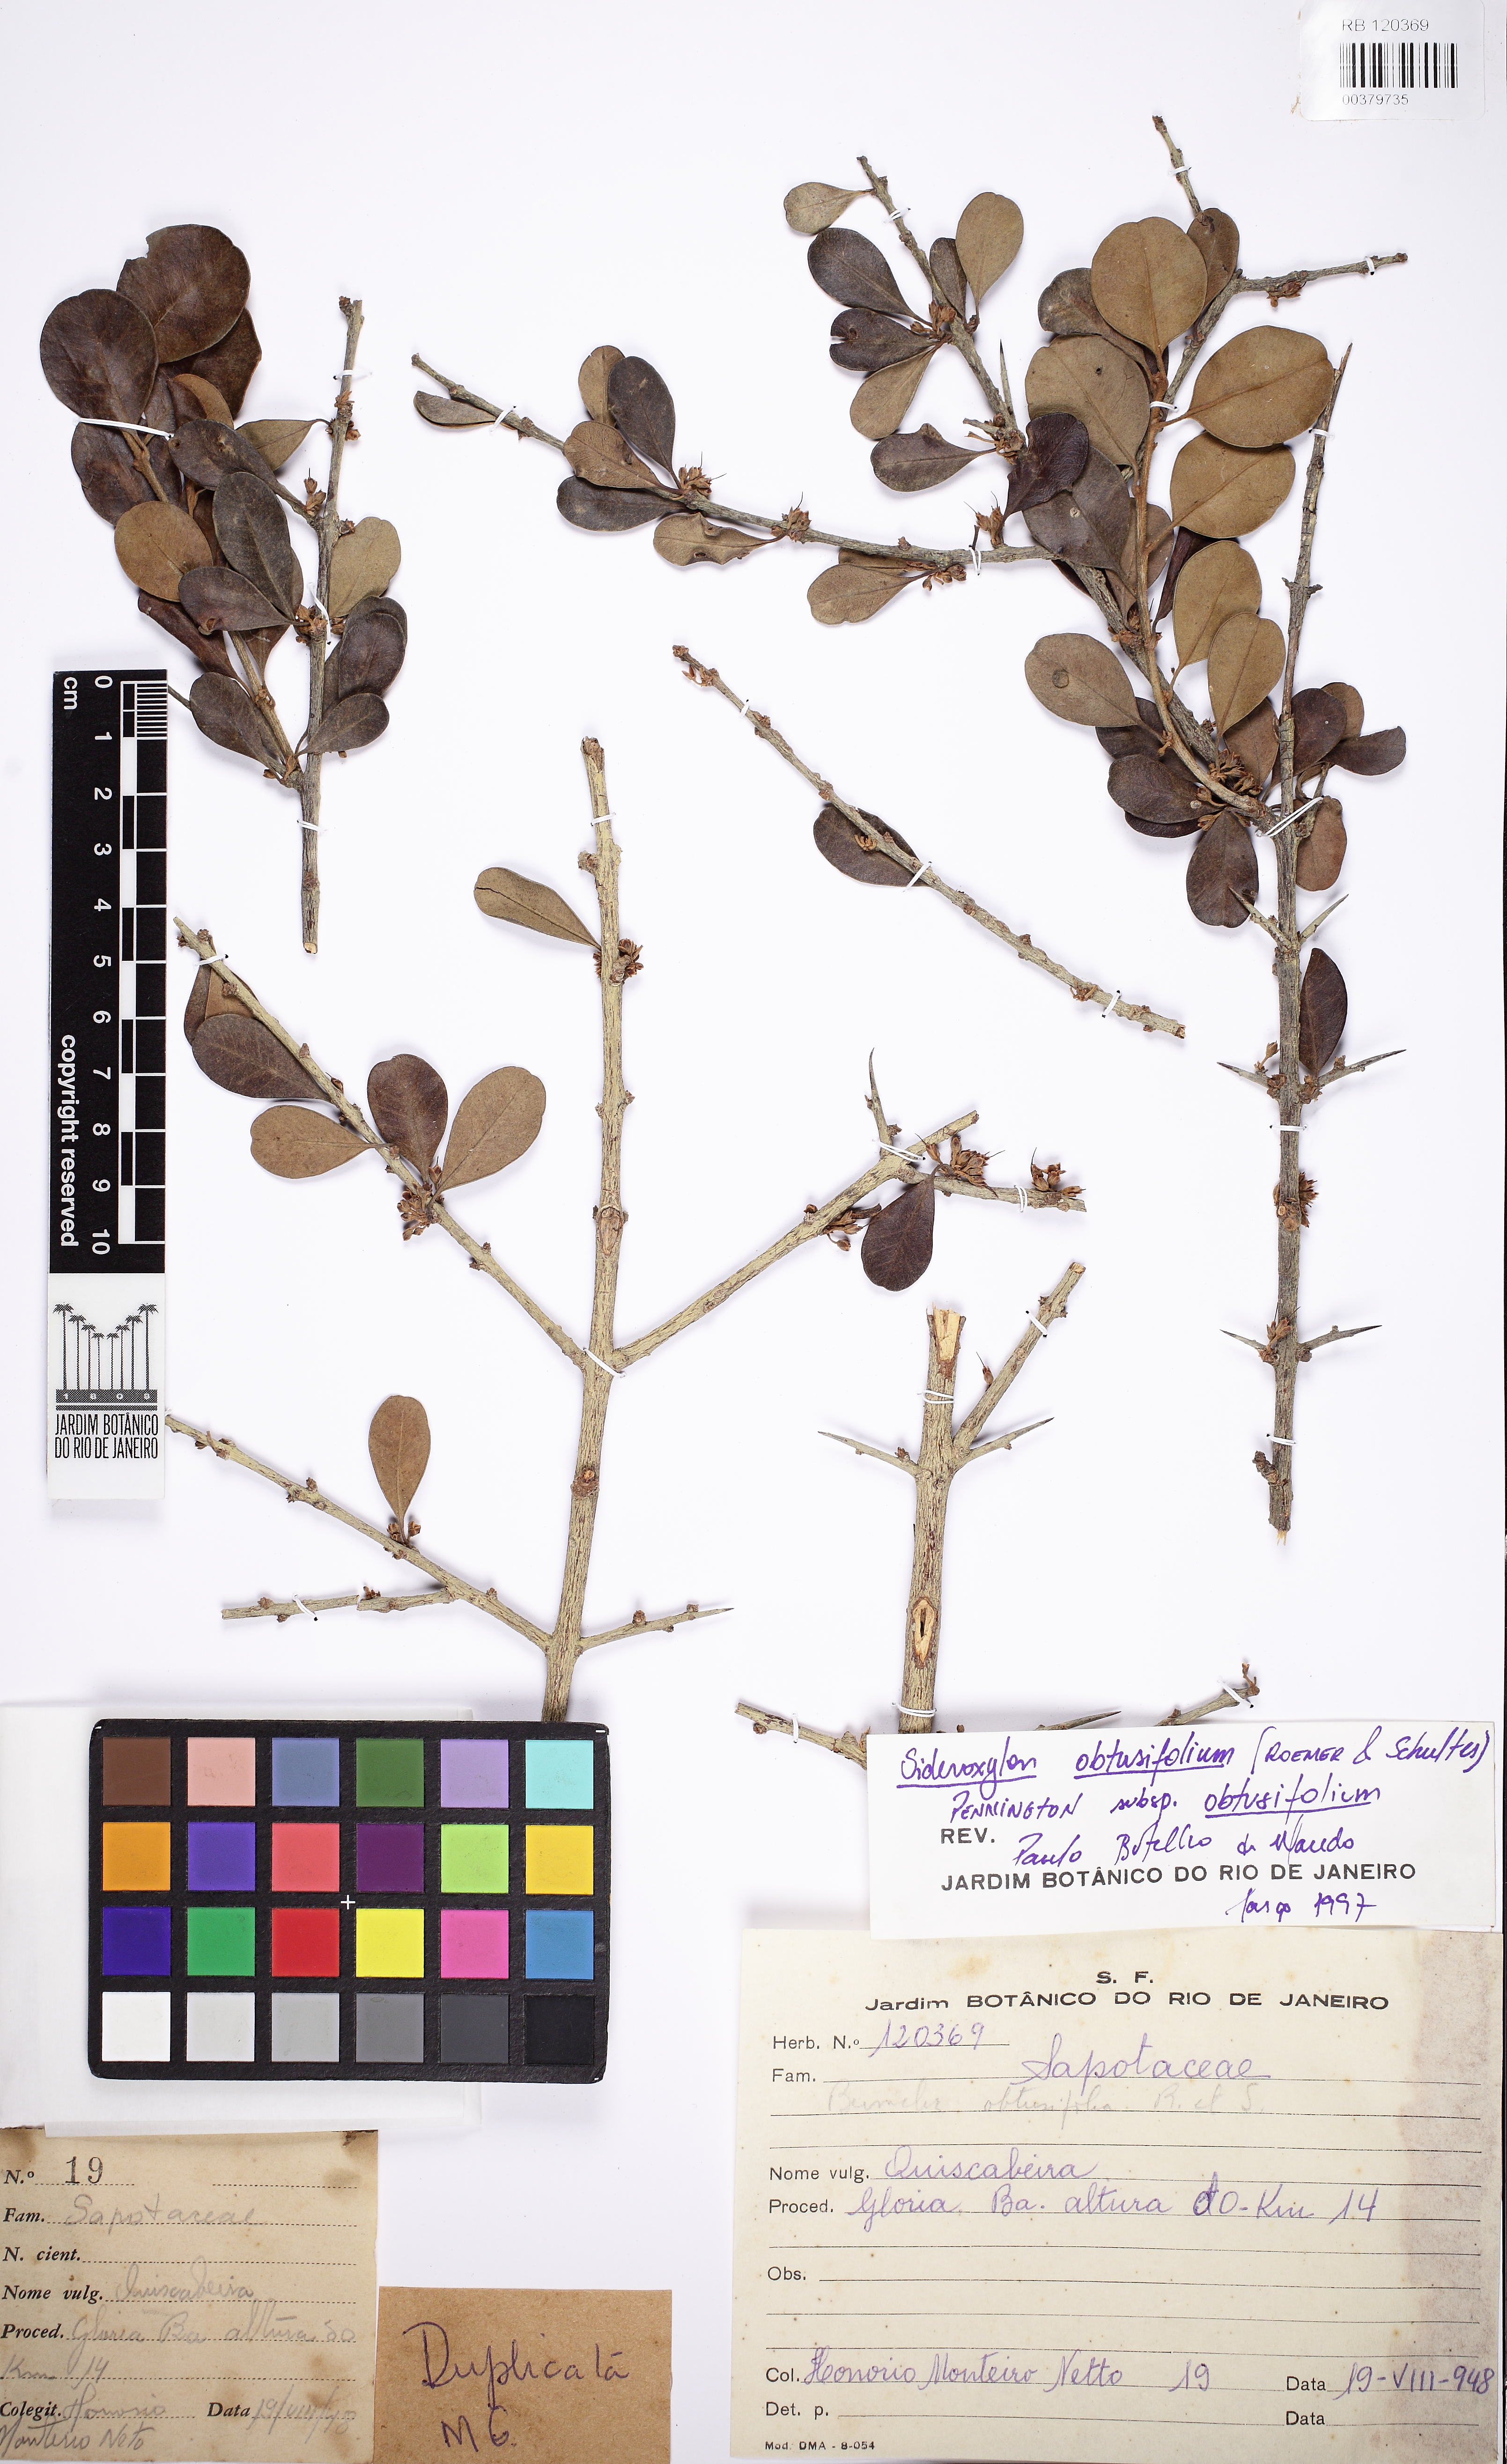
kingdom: Plantae
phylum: Tracheophyta
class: Magnoliopsida
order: Ericales
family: Sapotaceae
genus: Sideroxylon
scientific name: Sideroxylon obtusifolium
